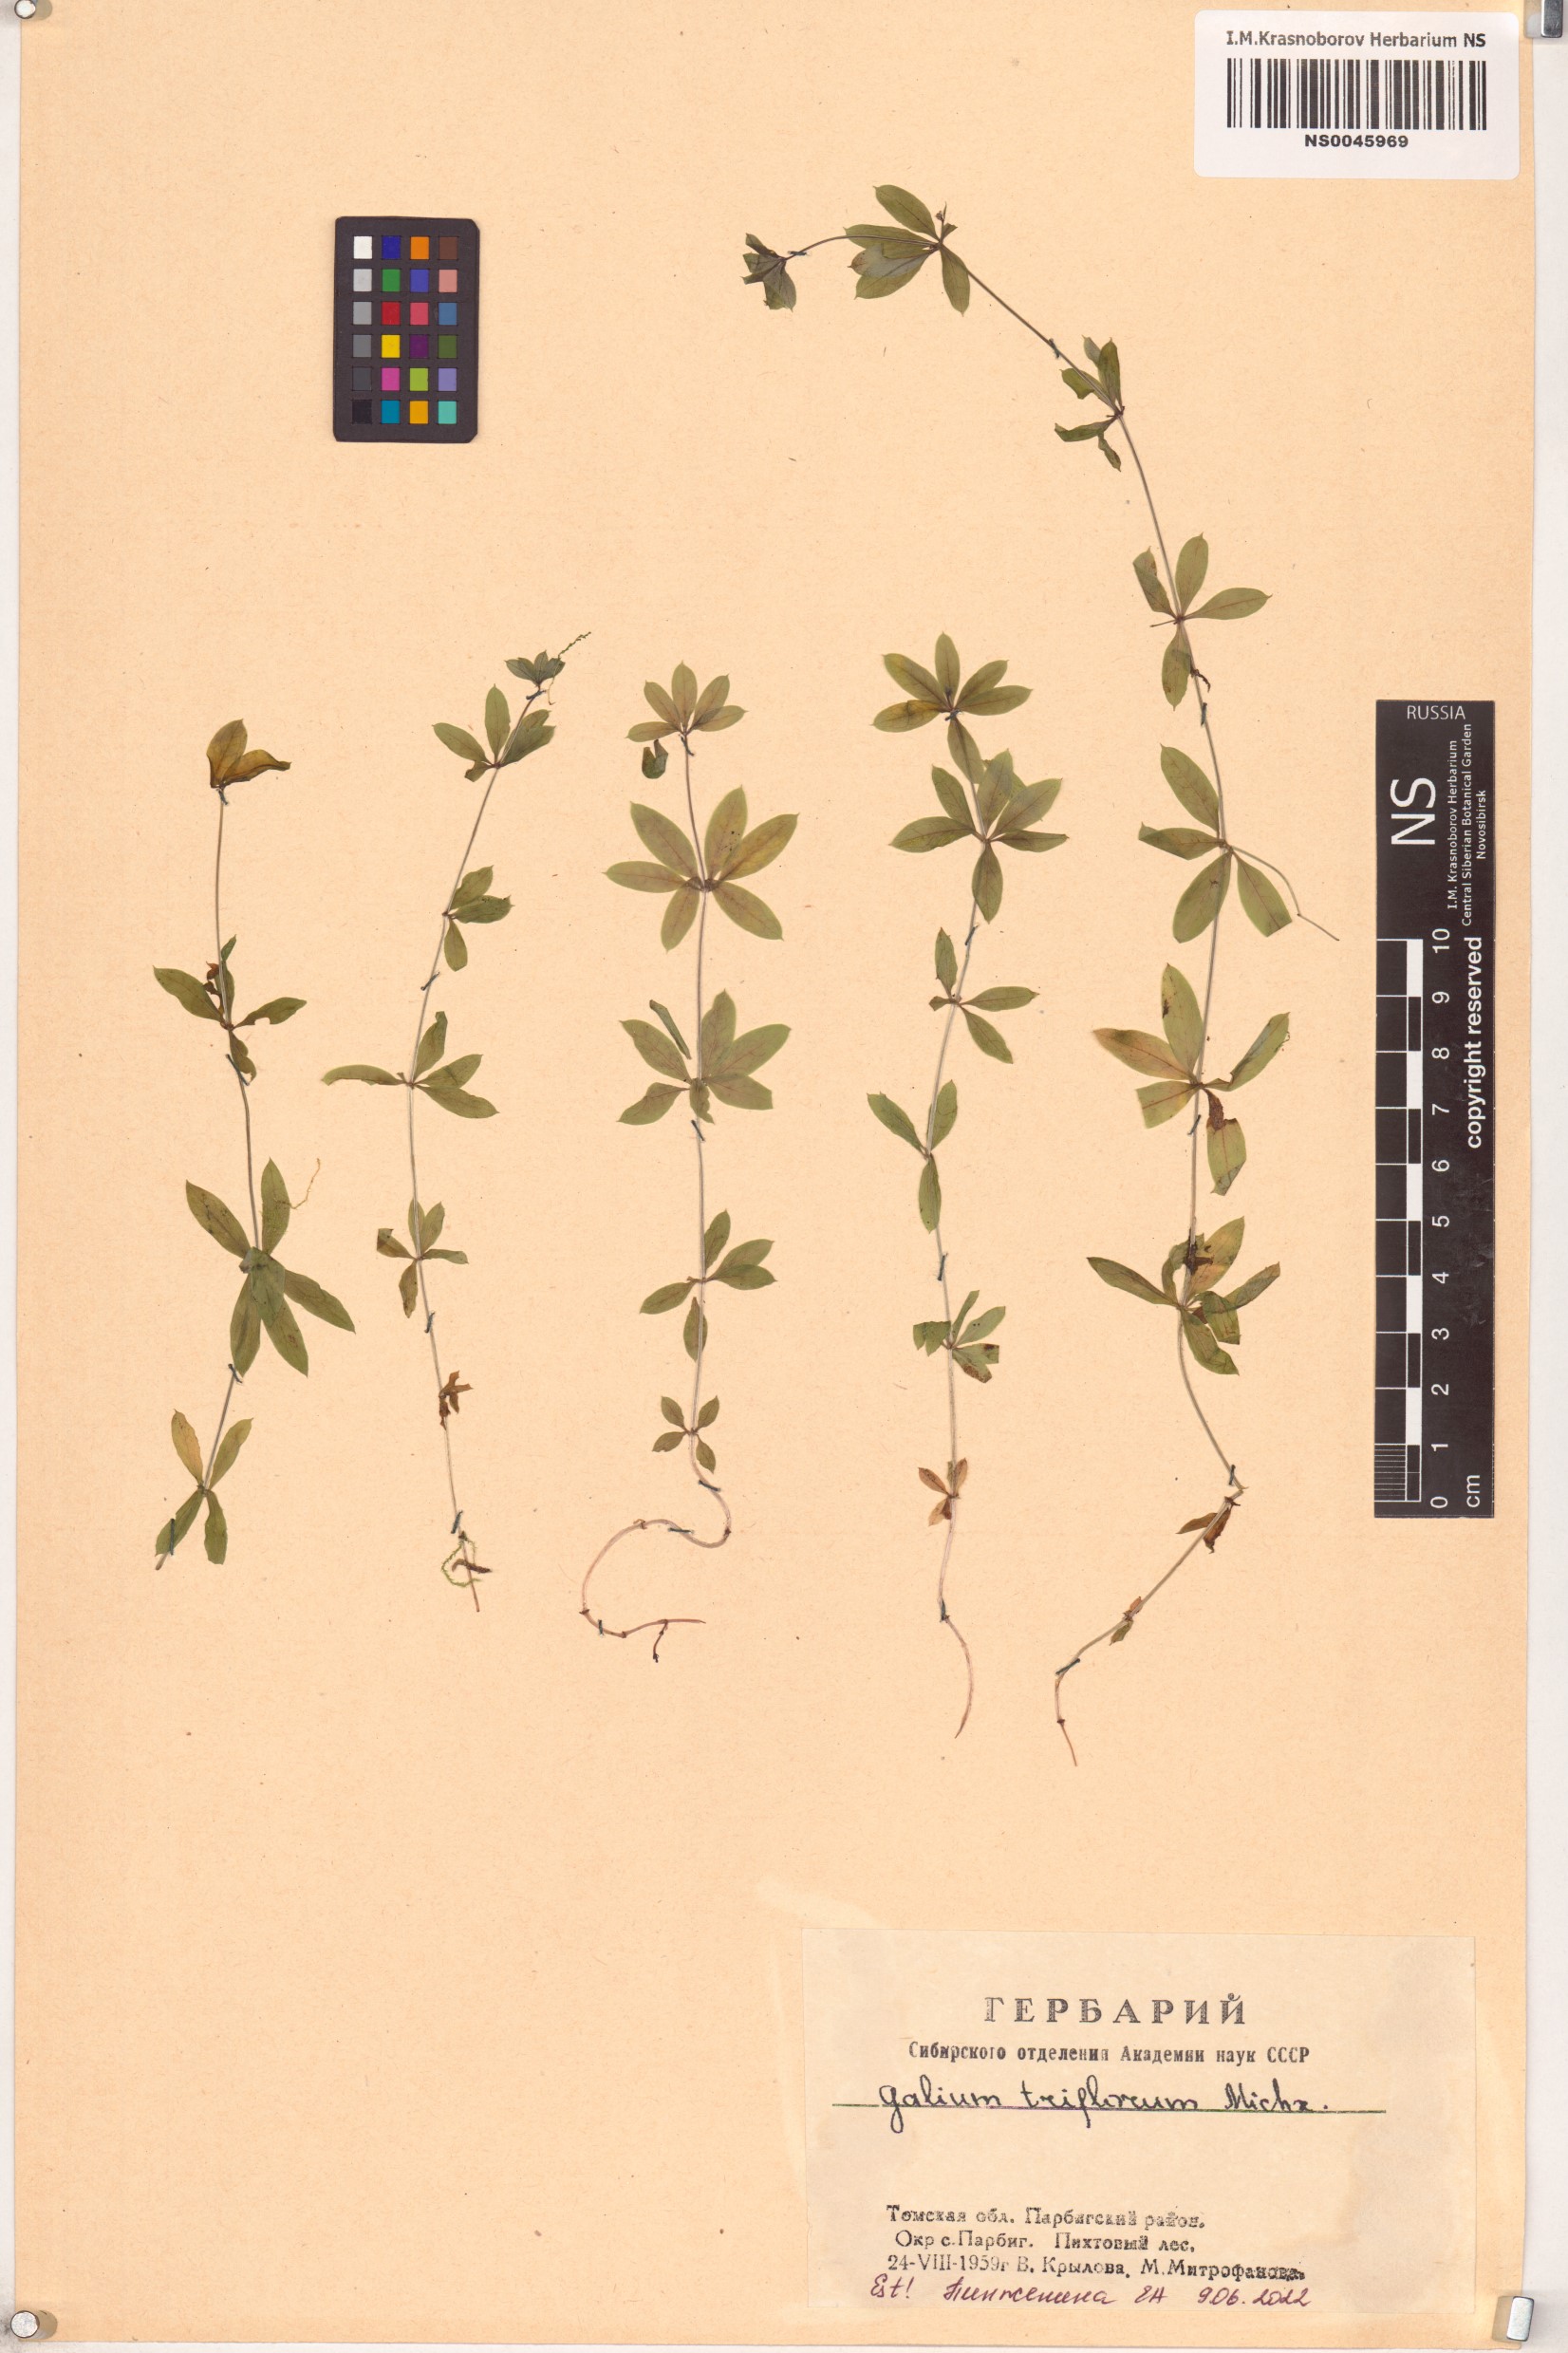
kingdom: Plantae
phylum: Tracheophyta
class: Magnoliopsida
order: Gentianales
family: Rubiaceae
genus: Galium
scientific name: Galium triflorum
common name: Fragrant bedstraw
